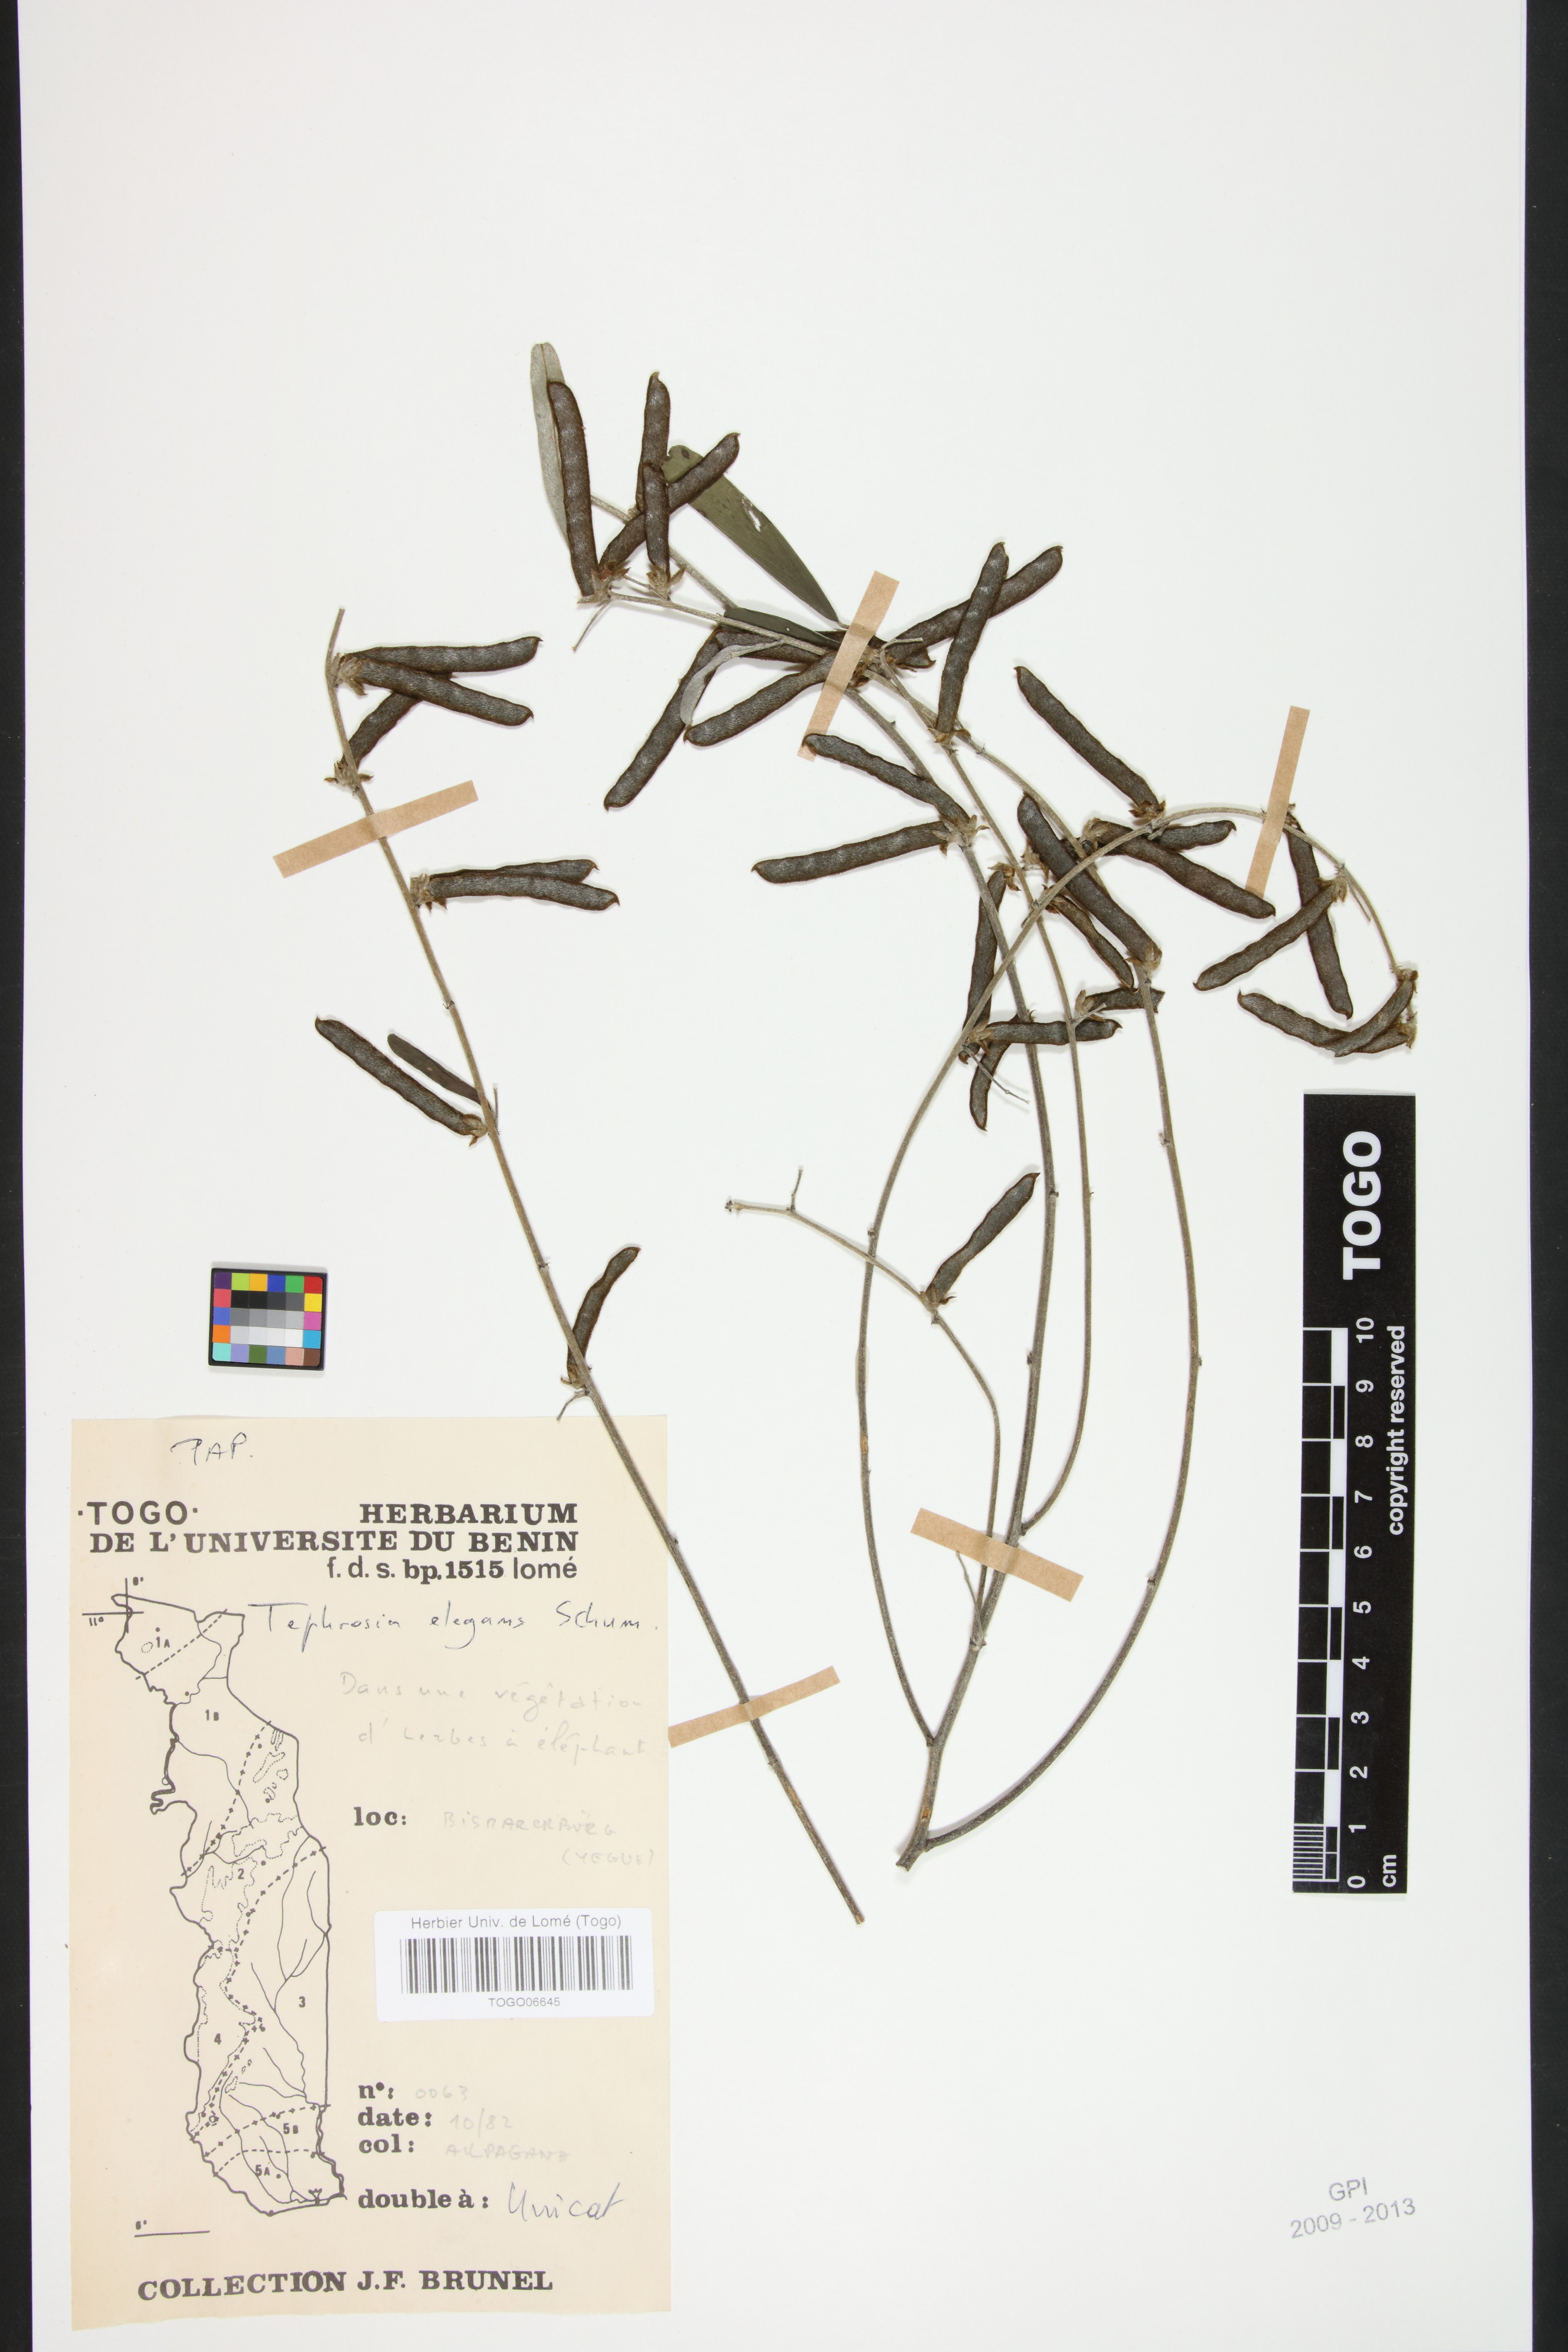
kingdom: Plantae
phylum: Tracheophyta
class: Magnoliopsida
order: Fabales
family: Fabaceae
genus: Tephrosia
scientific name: Tephrosia elegans
